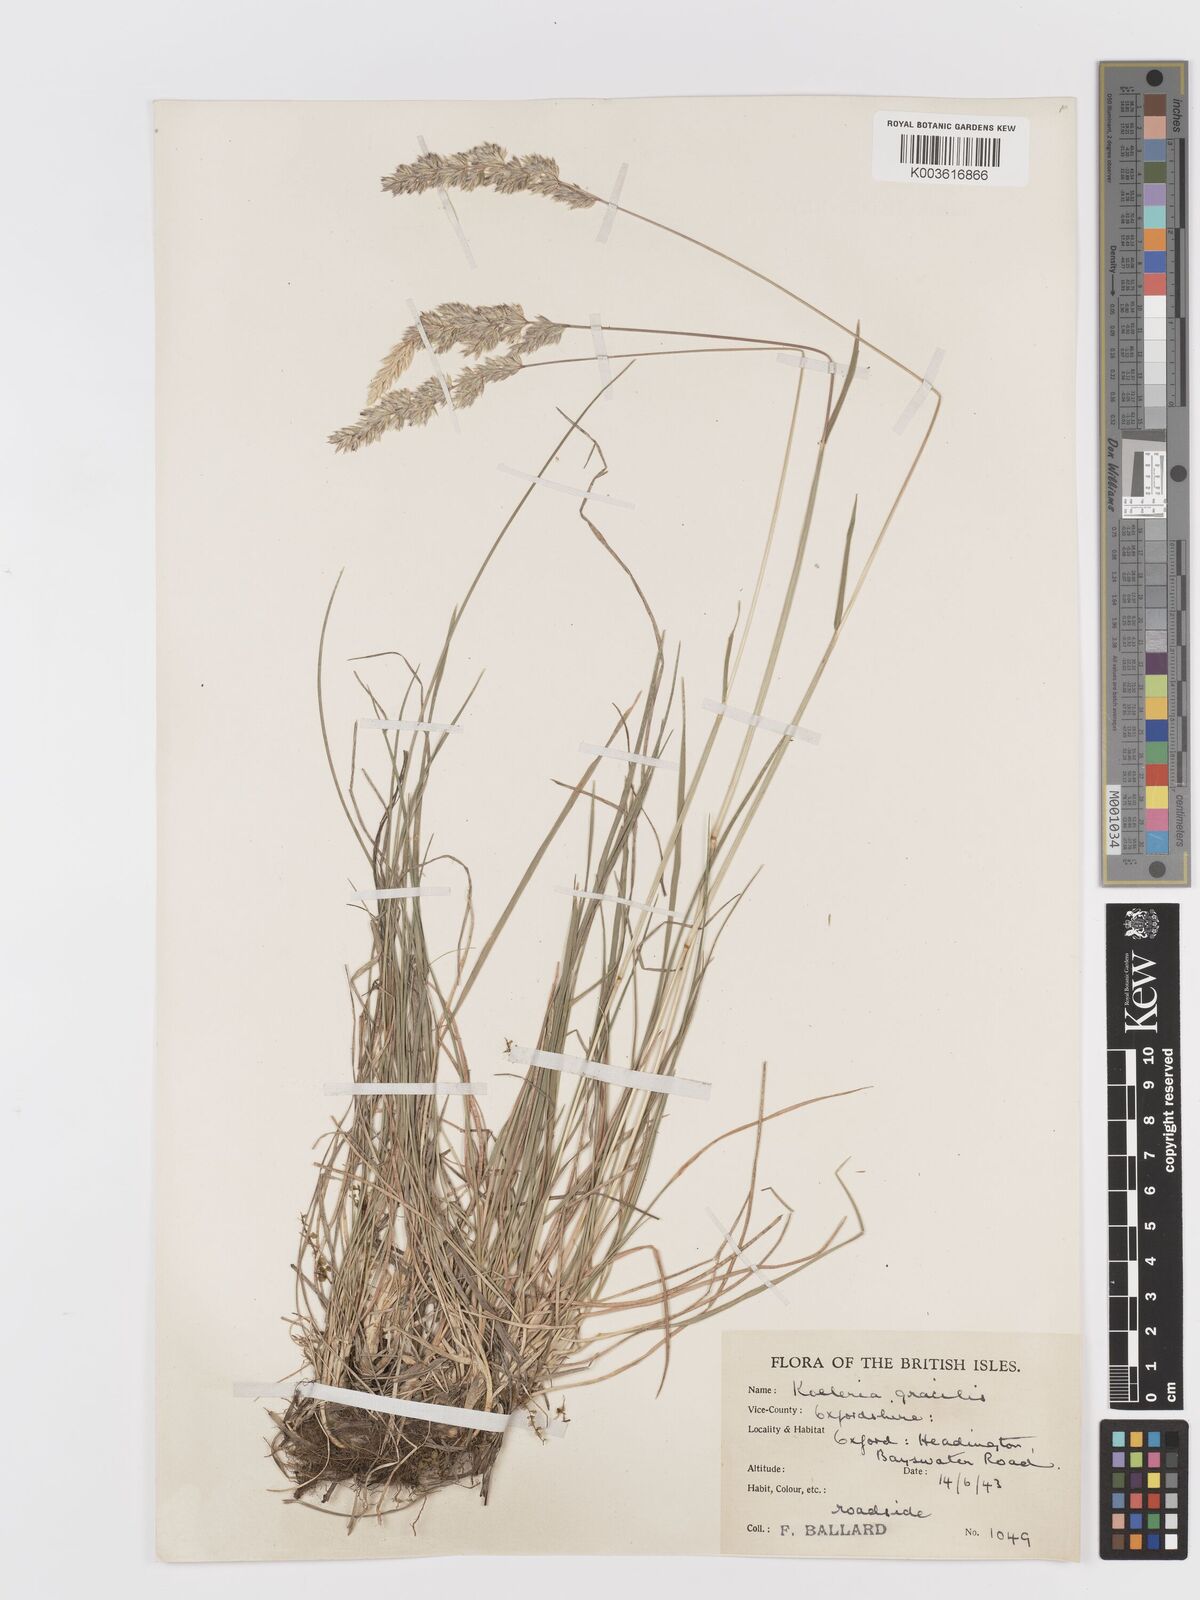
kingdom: Plantae
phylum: Tracheophyta
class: Liliopsida
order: Poales
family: Poaceae
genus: Koeleria
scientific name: Koeleria macrantha
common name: Crested hair-grass
